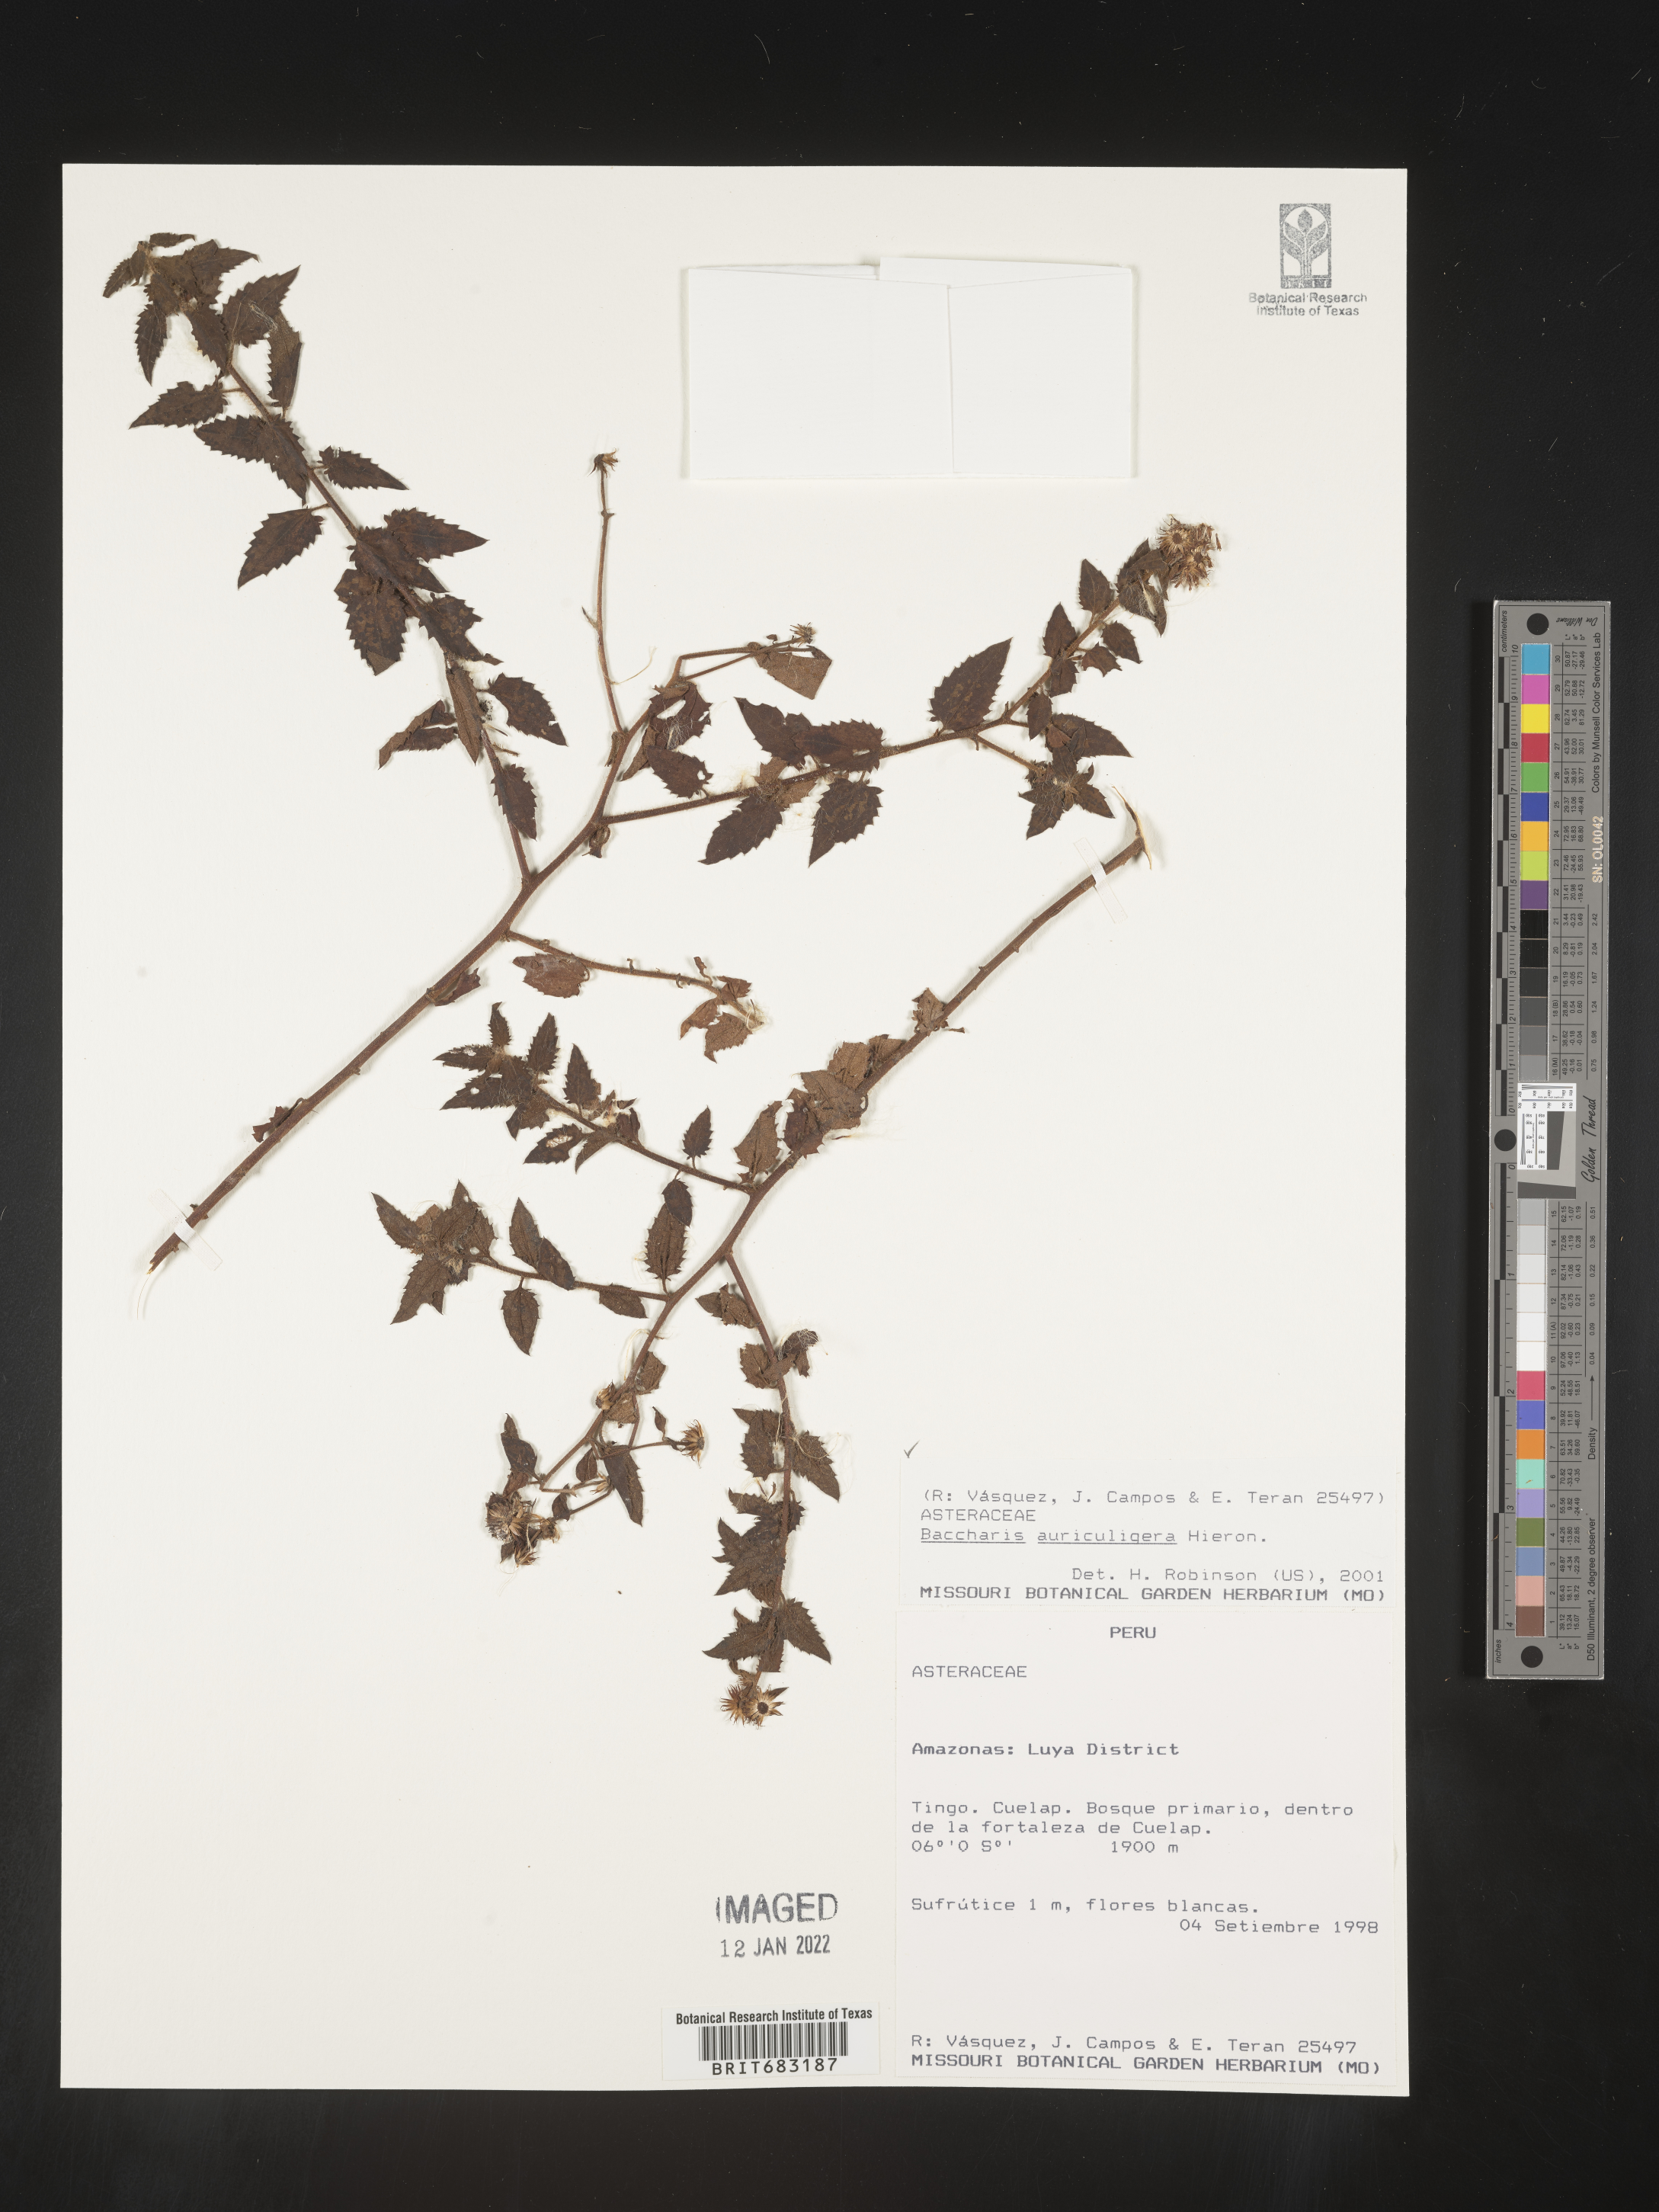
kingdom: Plantae
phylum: Tracheophyta
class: Magnoliopsida
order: Asterales
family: Asteraceae
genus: Baccharis
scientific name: Baccharis
